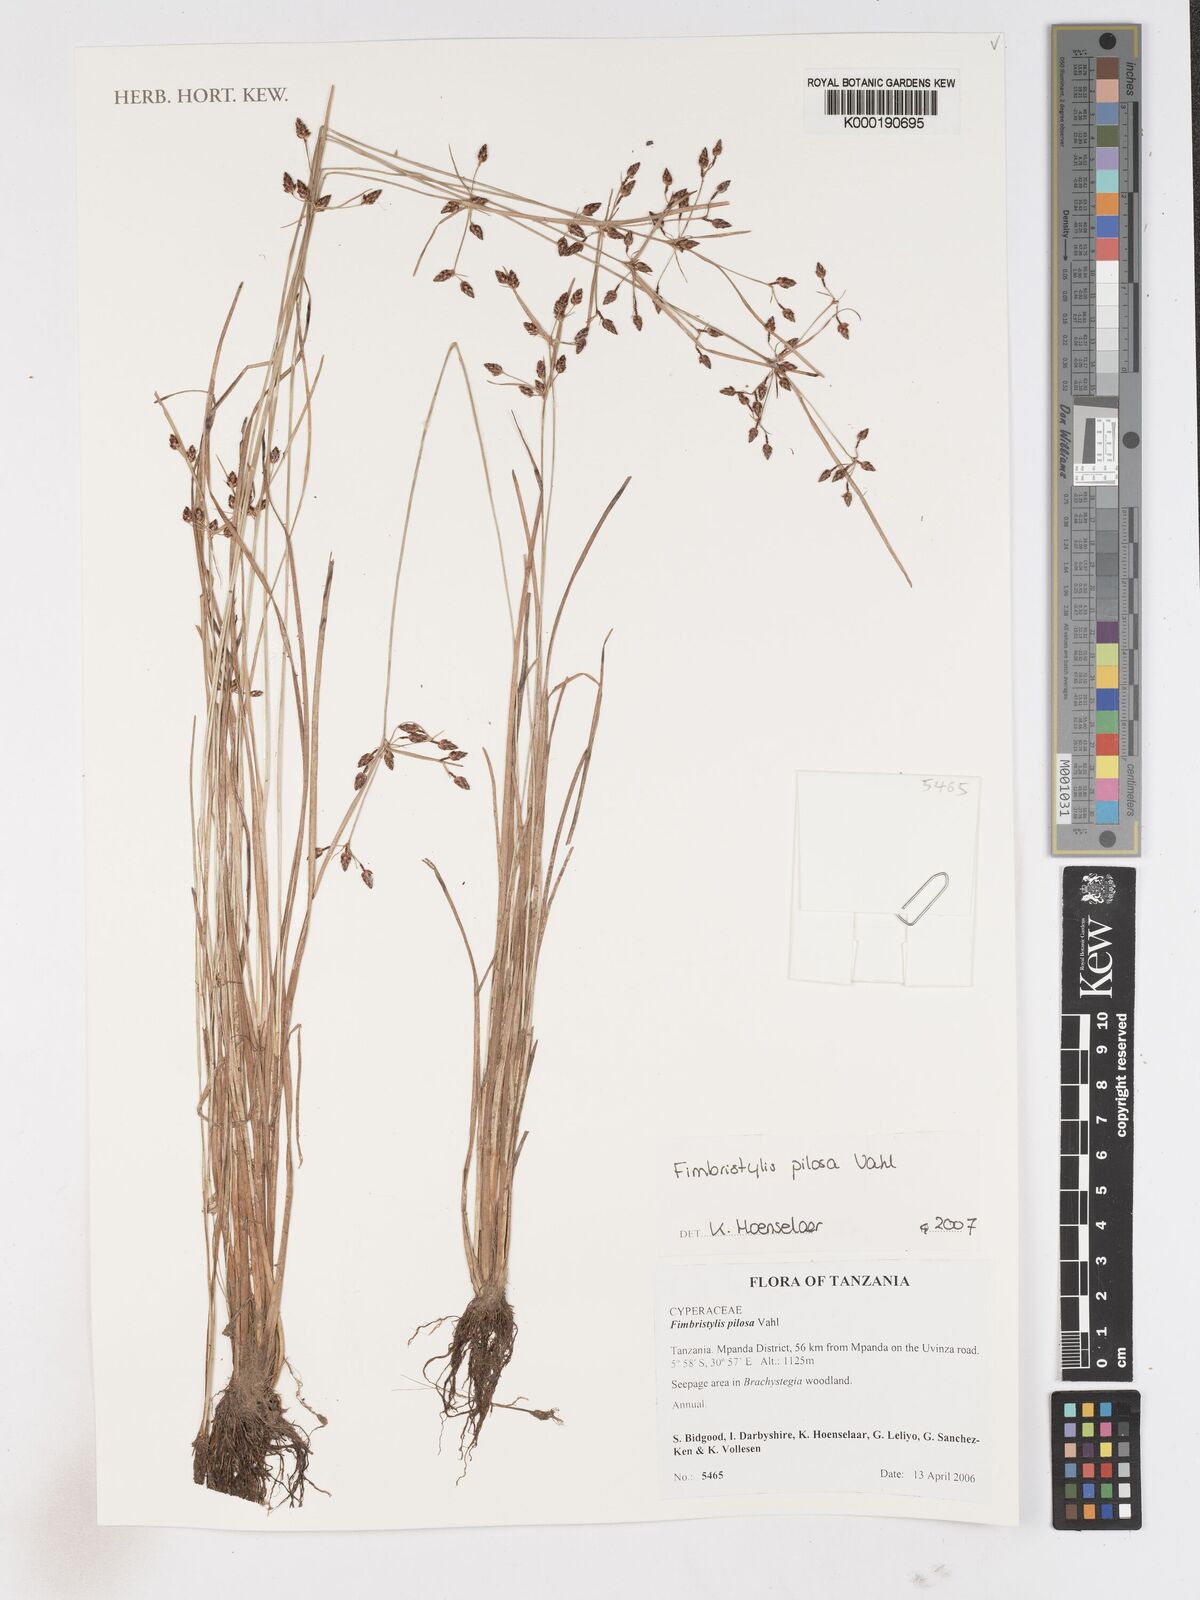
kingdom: Plantae
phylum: Tracheophyta
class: Liliopsida
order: Poales
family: Cyperaceae
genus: Fimbristylis
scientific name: Fimbristylis pilosa
